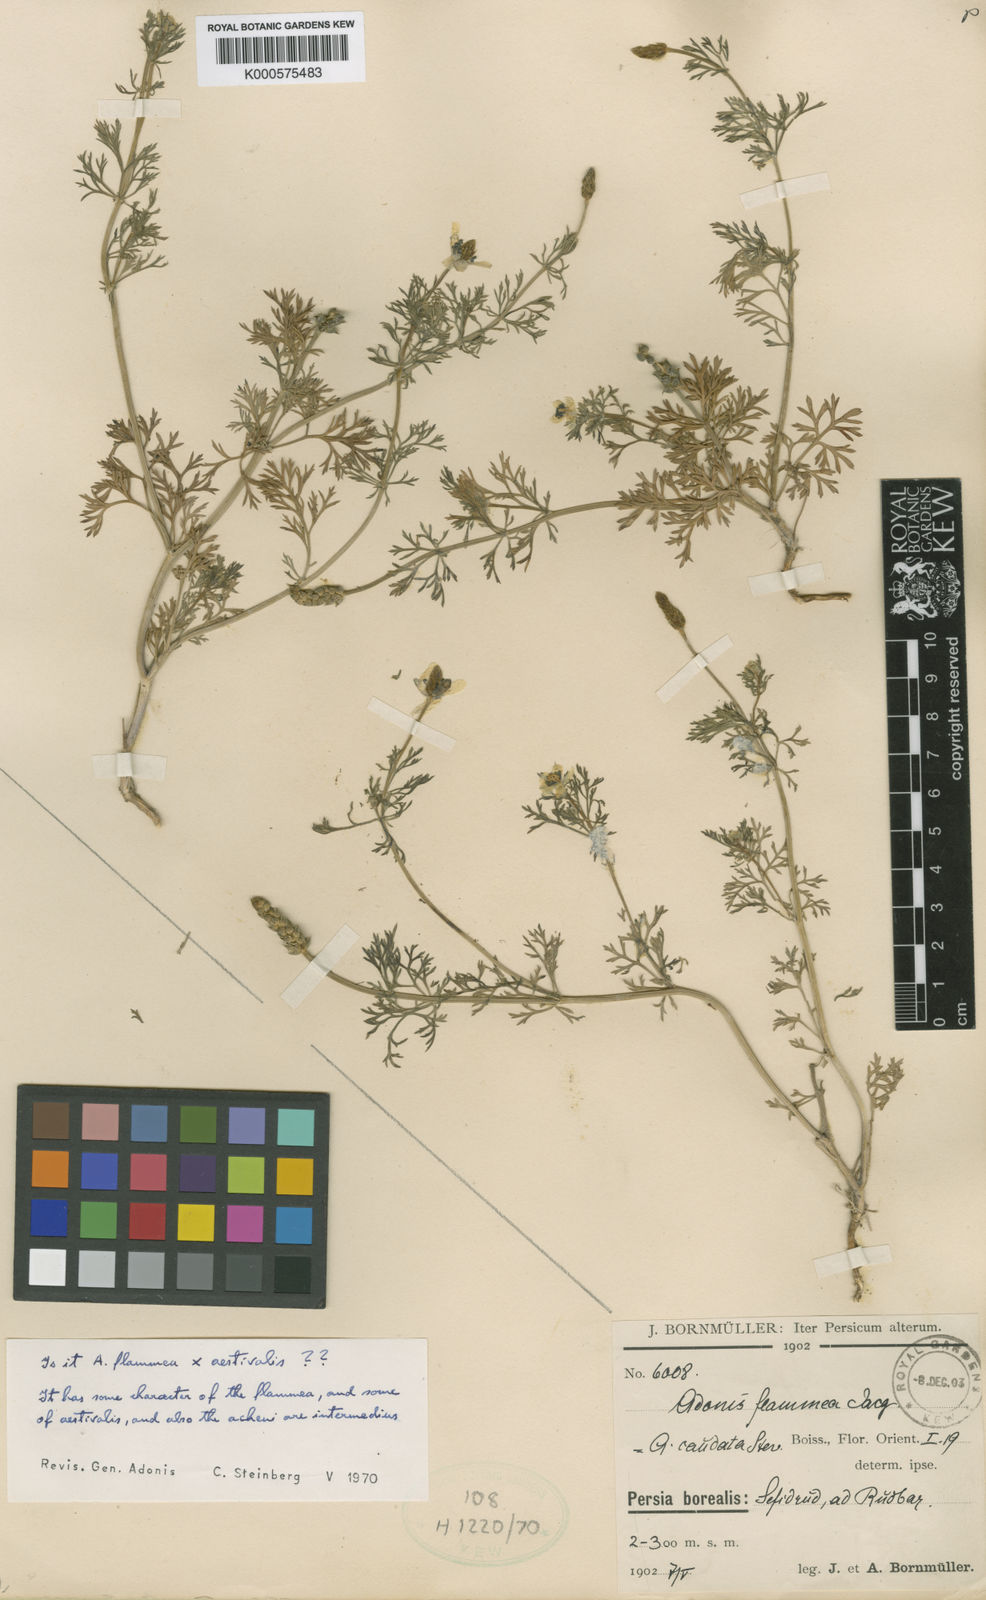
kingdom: Plantae
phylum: Tracheophyta
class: Magnoliopsida
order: Ranunculales
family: Ranunculaceae
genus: Adonis
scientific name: Adonis flammea
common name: Large pheasant's-eye
